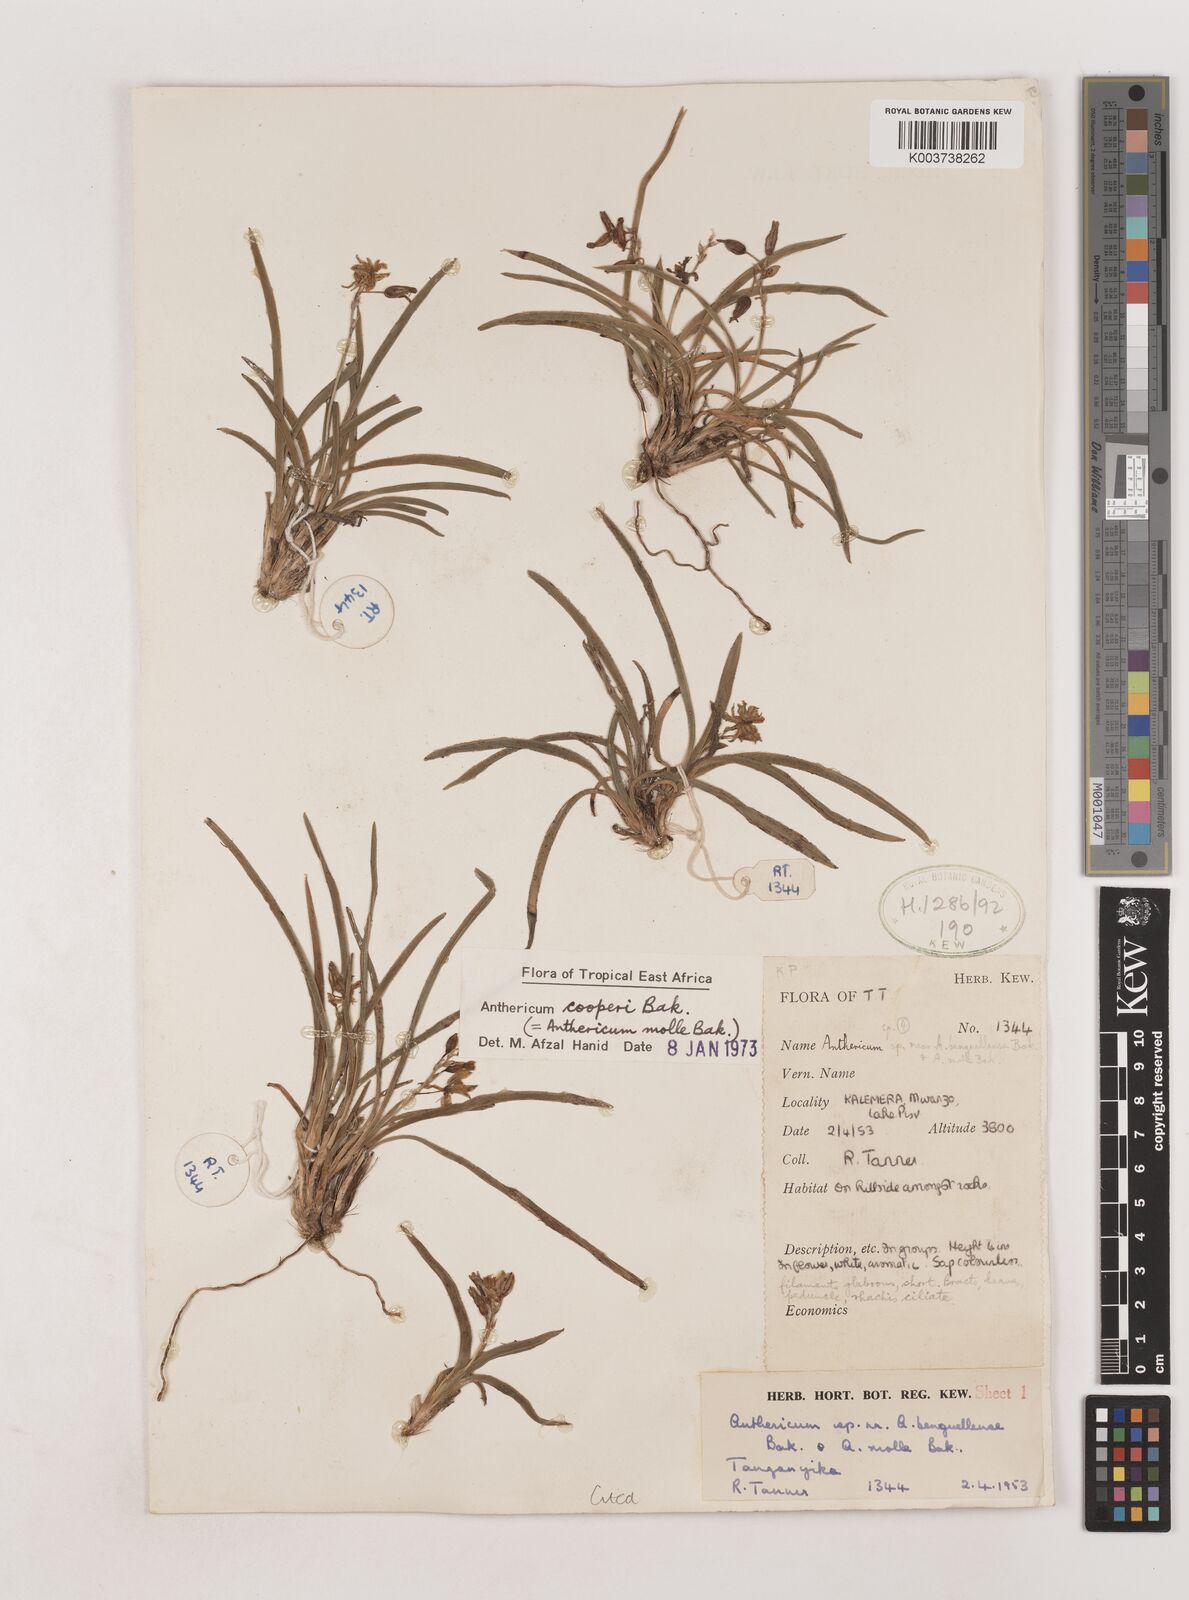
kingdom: Plantae
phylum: Tracheophyta
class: Liliopsida
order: Asparagales
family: Asparagaceae
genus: Chlorophytum
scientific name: Chlorophytum cameronii
